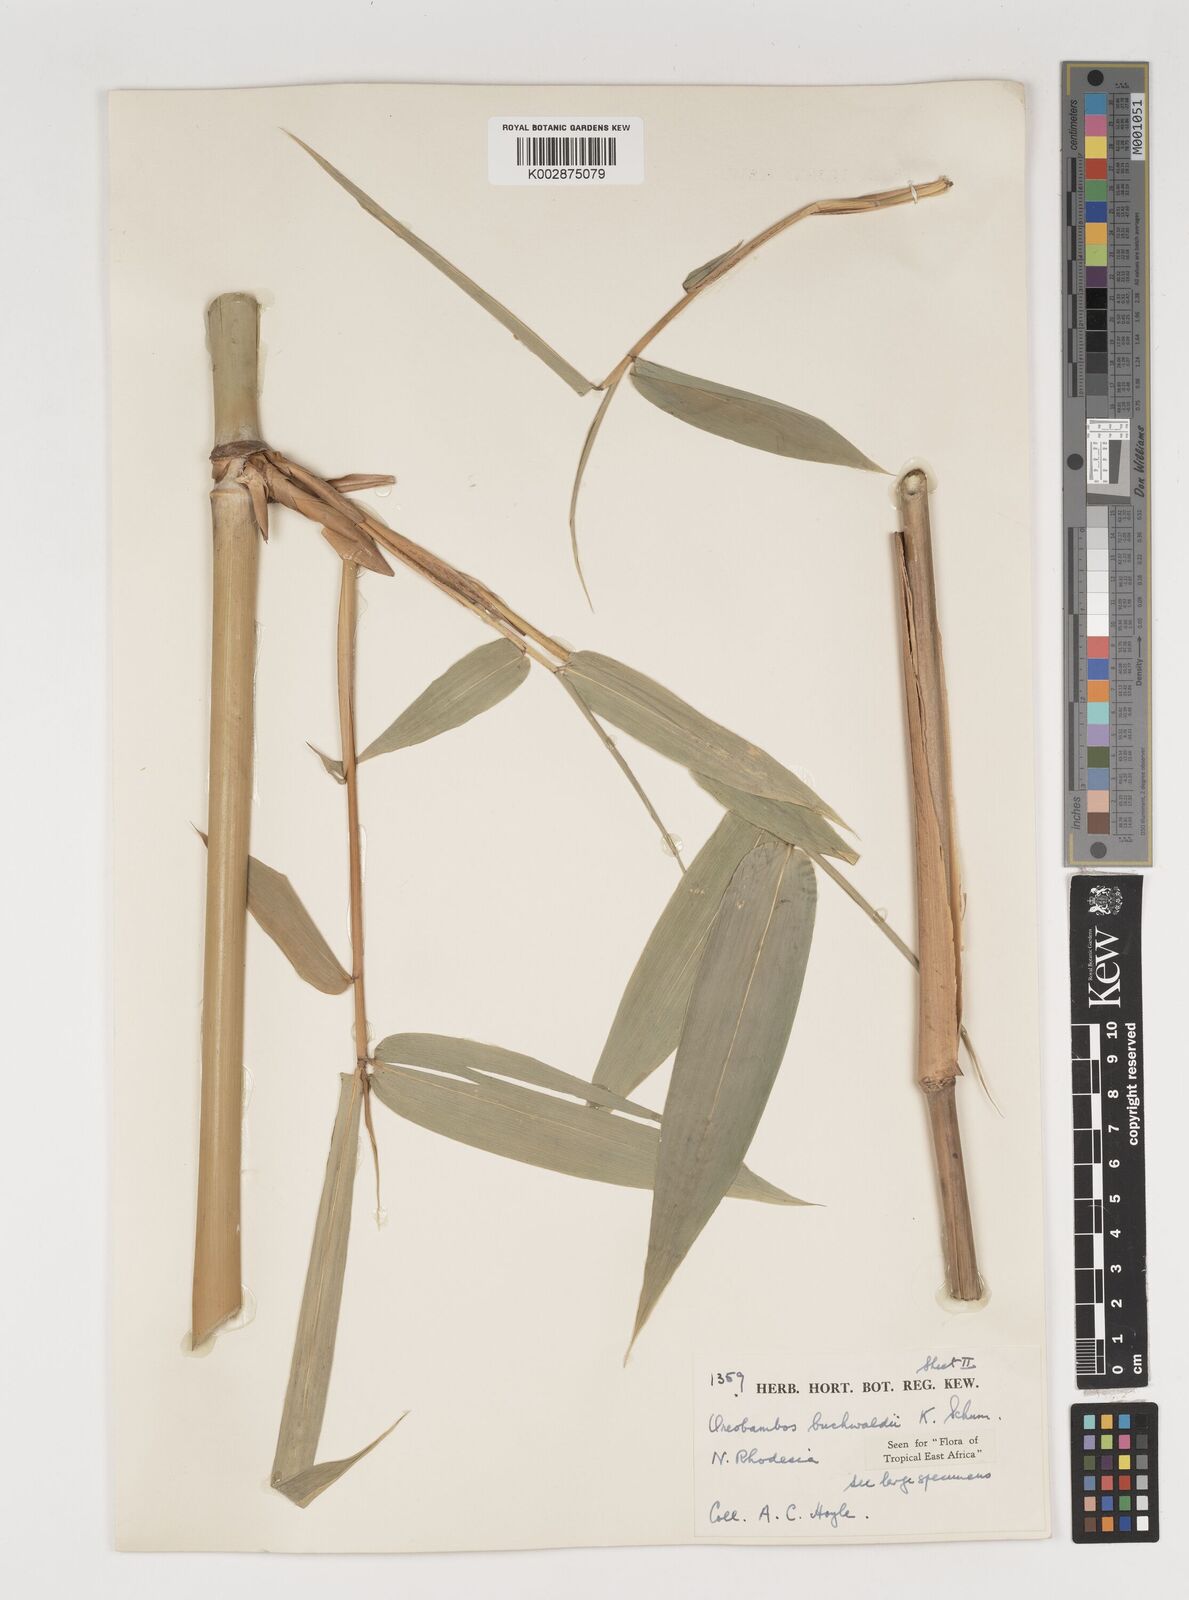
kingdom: Plantae
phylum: Tracheophyta
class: Liliopsida
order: Poales
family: Poaceae
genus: Oreobambos
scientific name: Oreobambos buchwaldii
